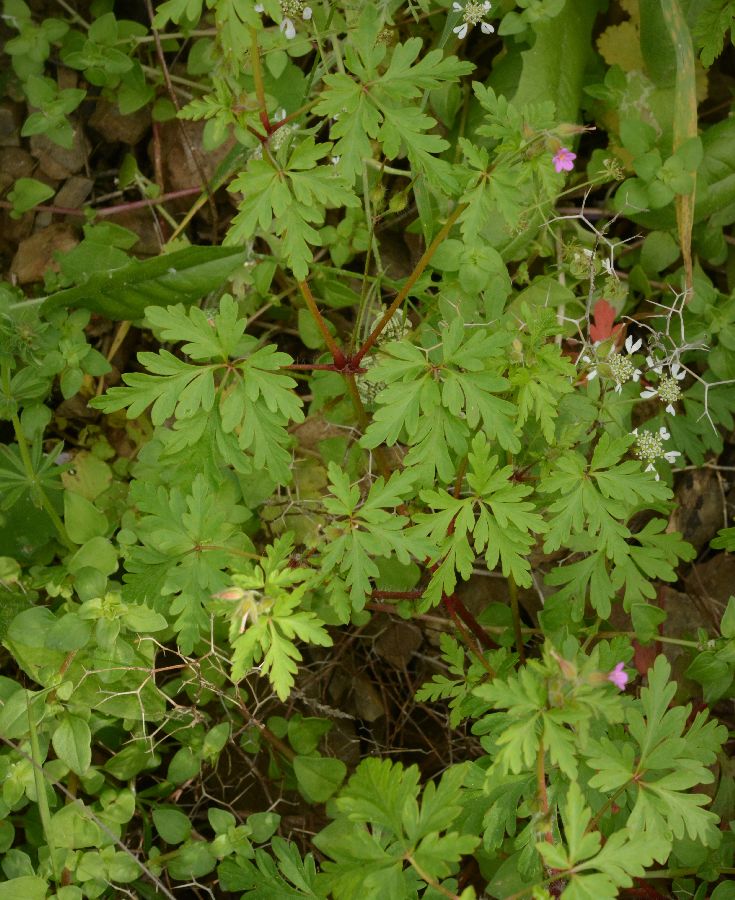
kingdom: Plantae
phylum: Tracheophyta
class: Magnoliopsida
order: Geraniales
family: Geraniaceae
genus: Geranium
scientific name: Geranium robertianum
